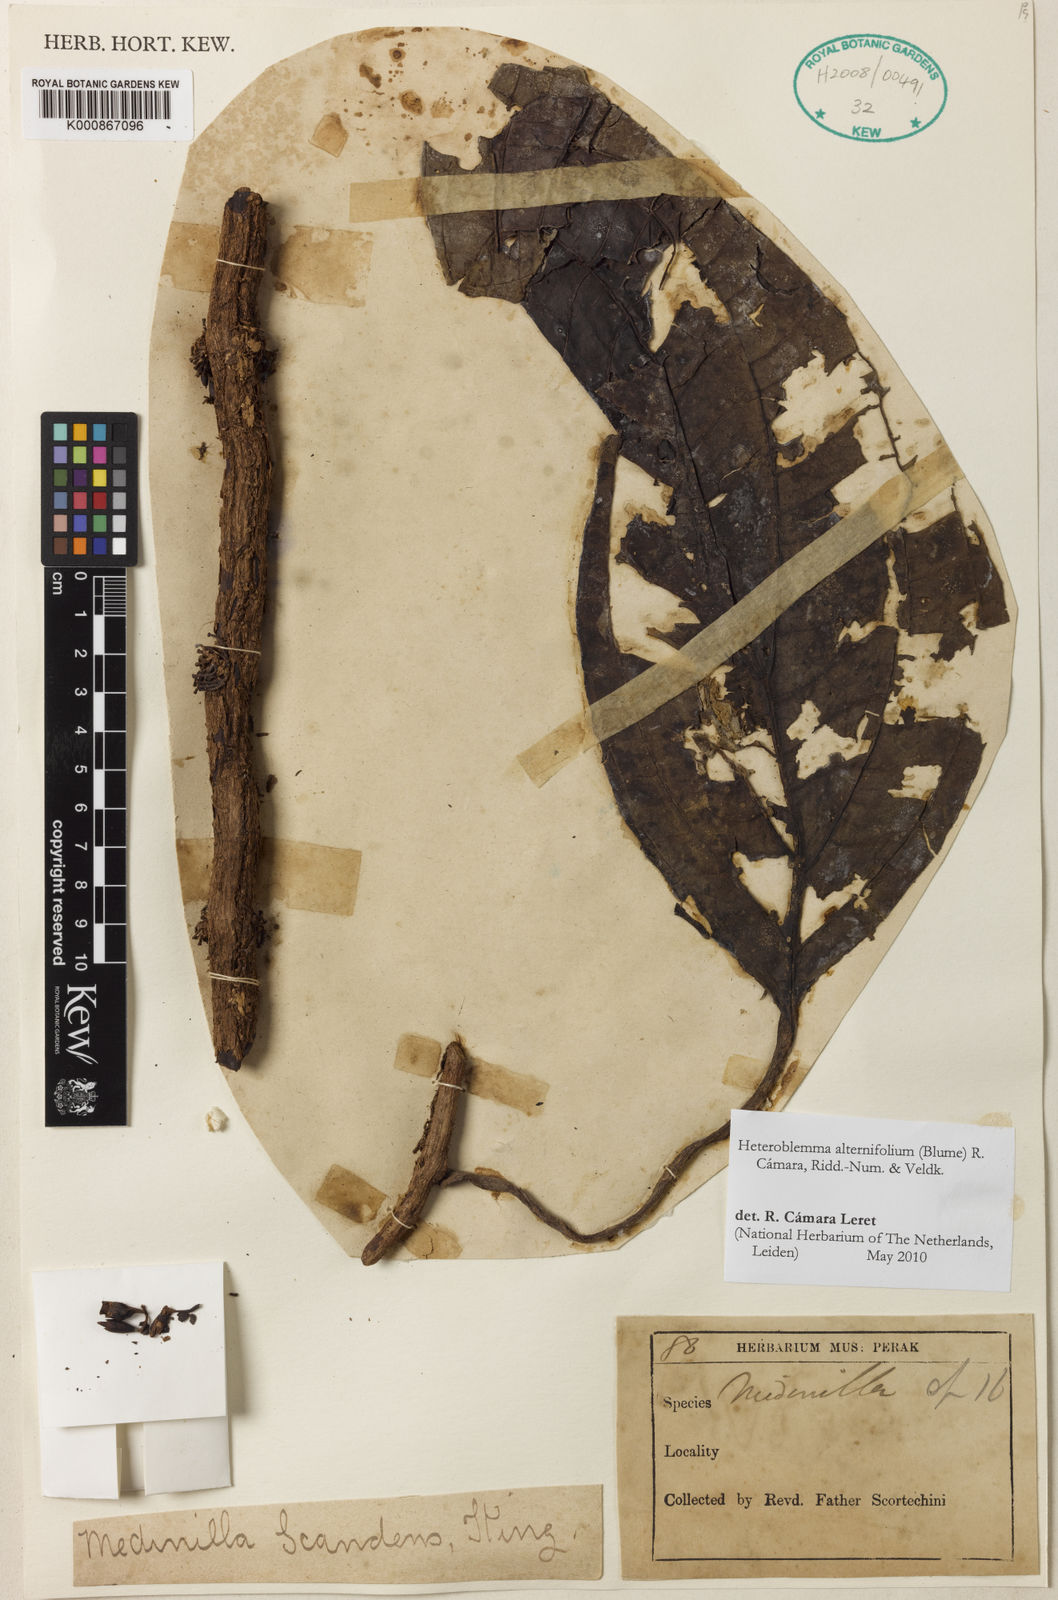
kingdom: Plantae
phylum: Tracheophyta
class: Magnoliopsida
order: Myrtales
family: Melastomataceae
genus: Heteroblemma
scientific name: Heteroblemma alternifolium
